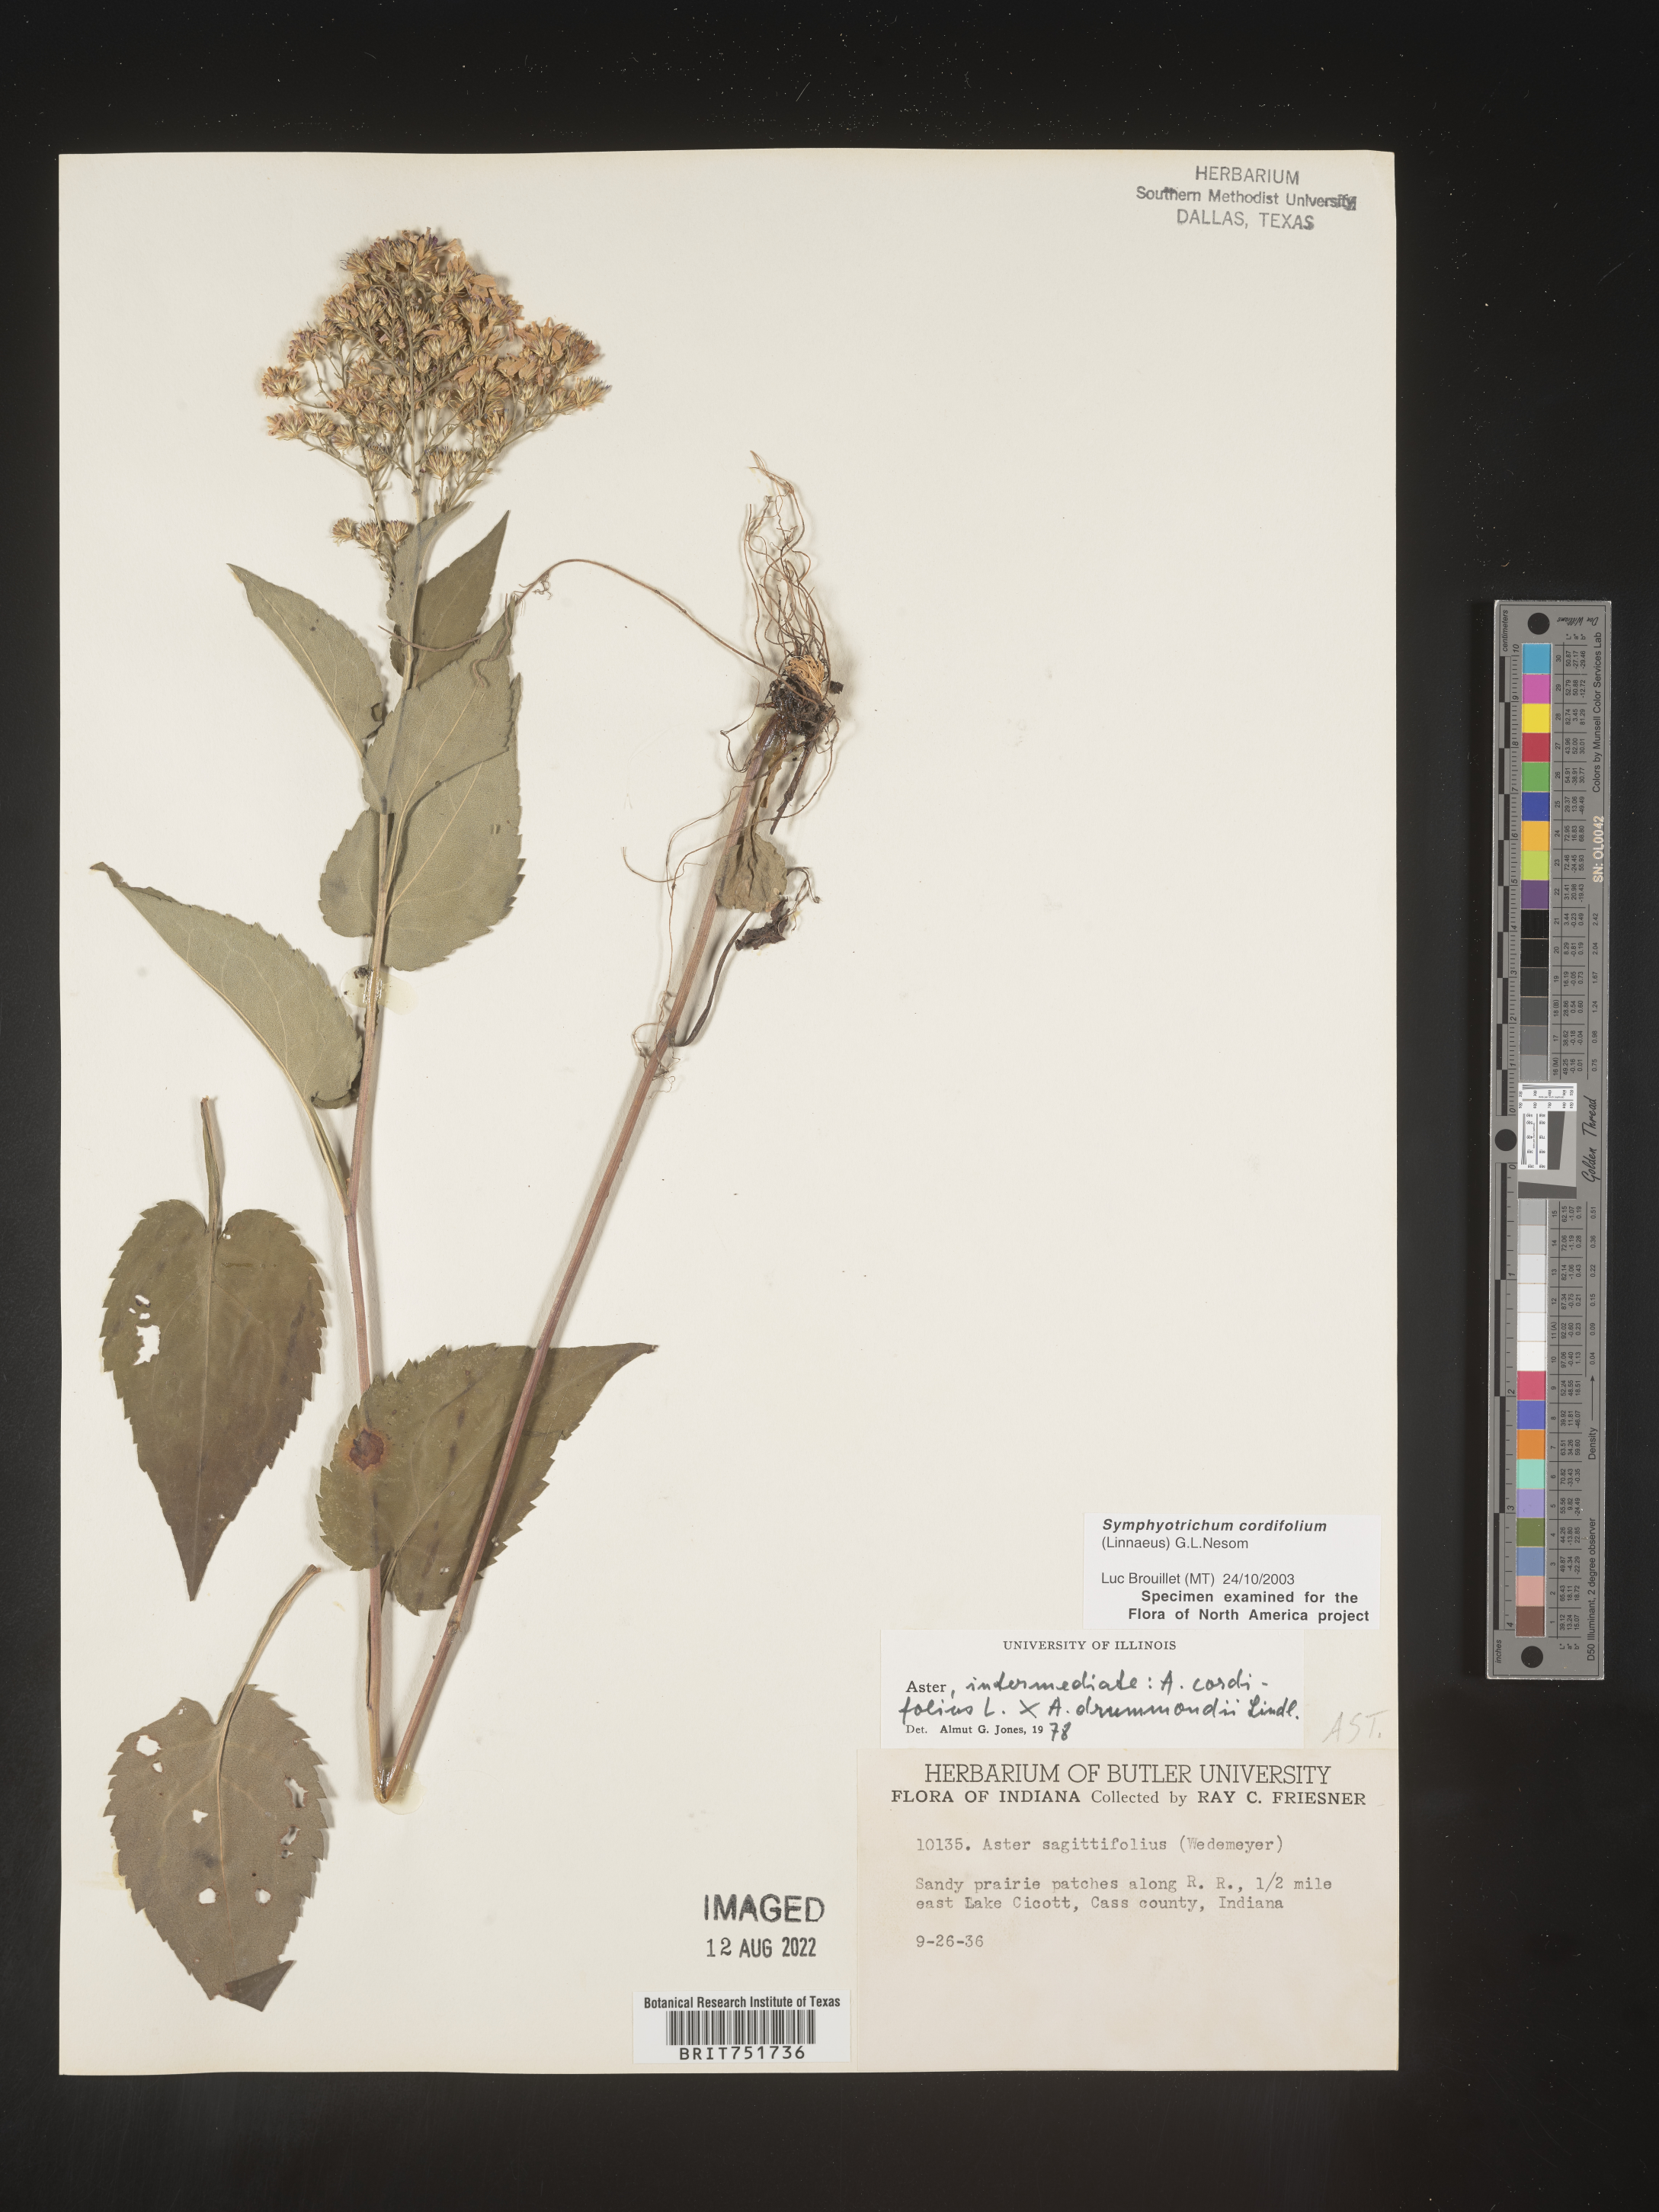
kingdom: Plantae
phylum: Tracheophyta
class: Magnoliopsida
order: Asterales
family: Asteraceae
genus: Symphyotrichum
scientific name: Symphyotrichum cordifolium
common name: Beeweed
